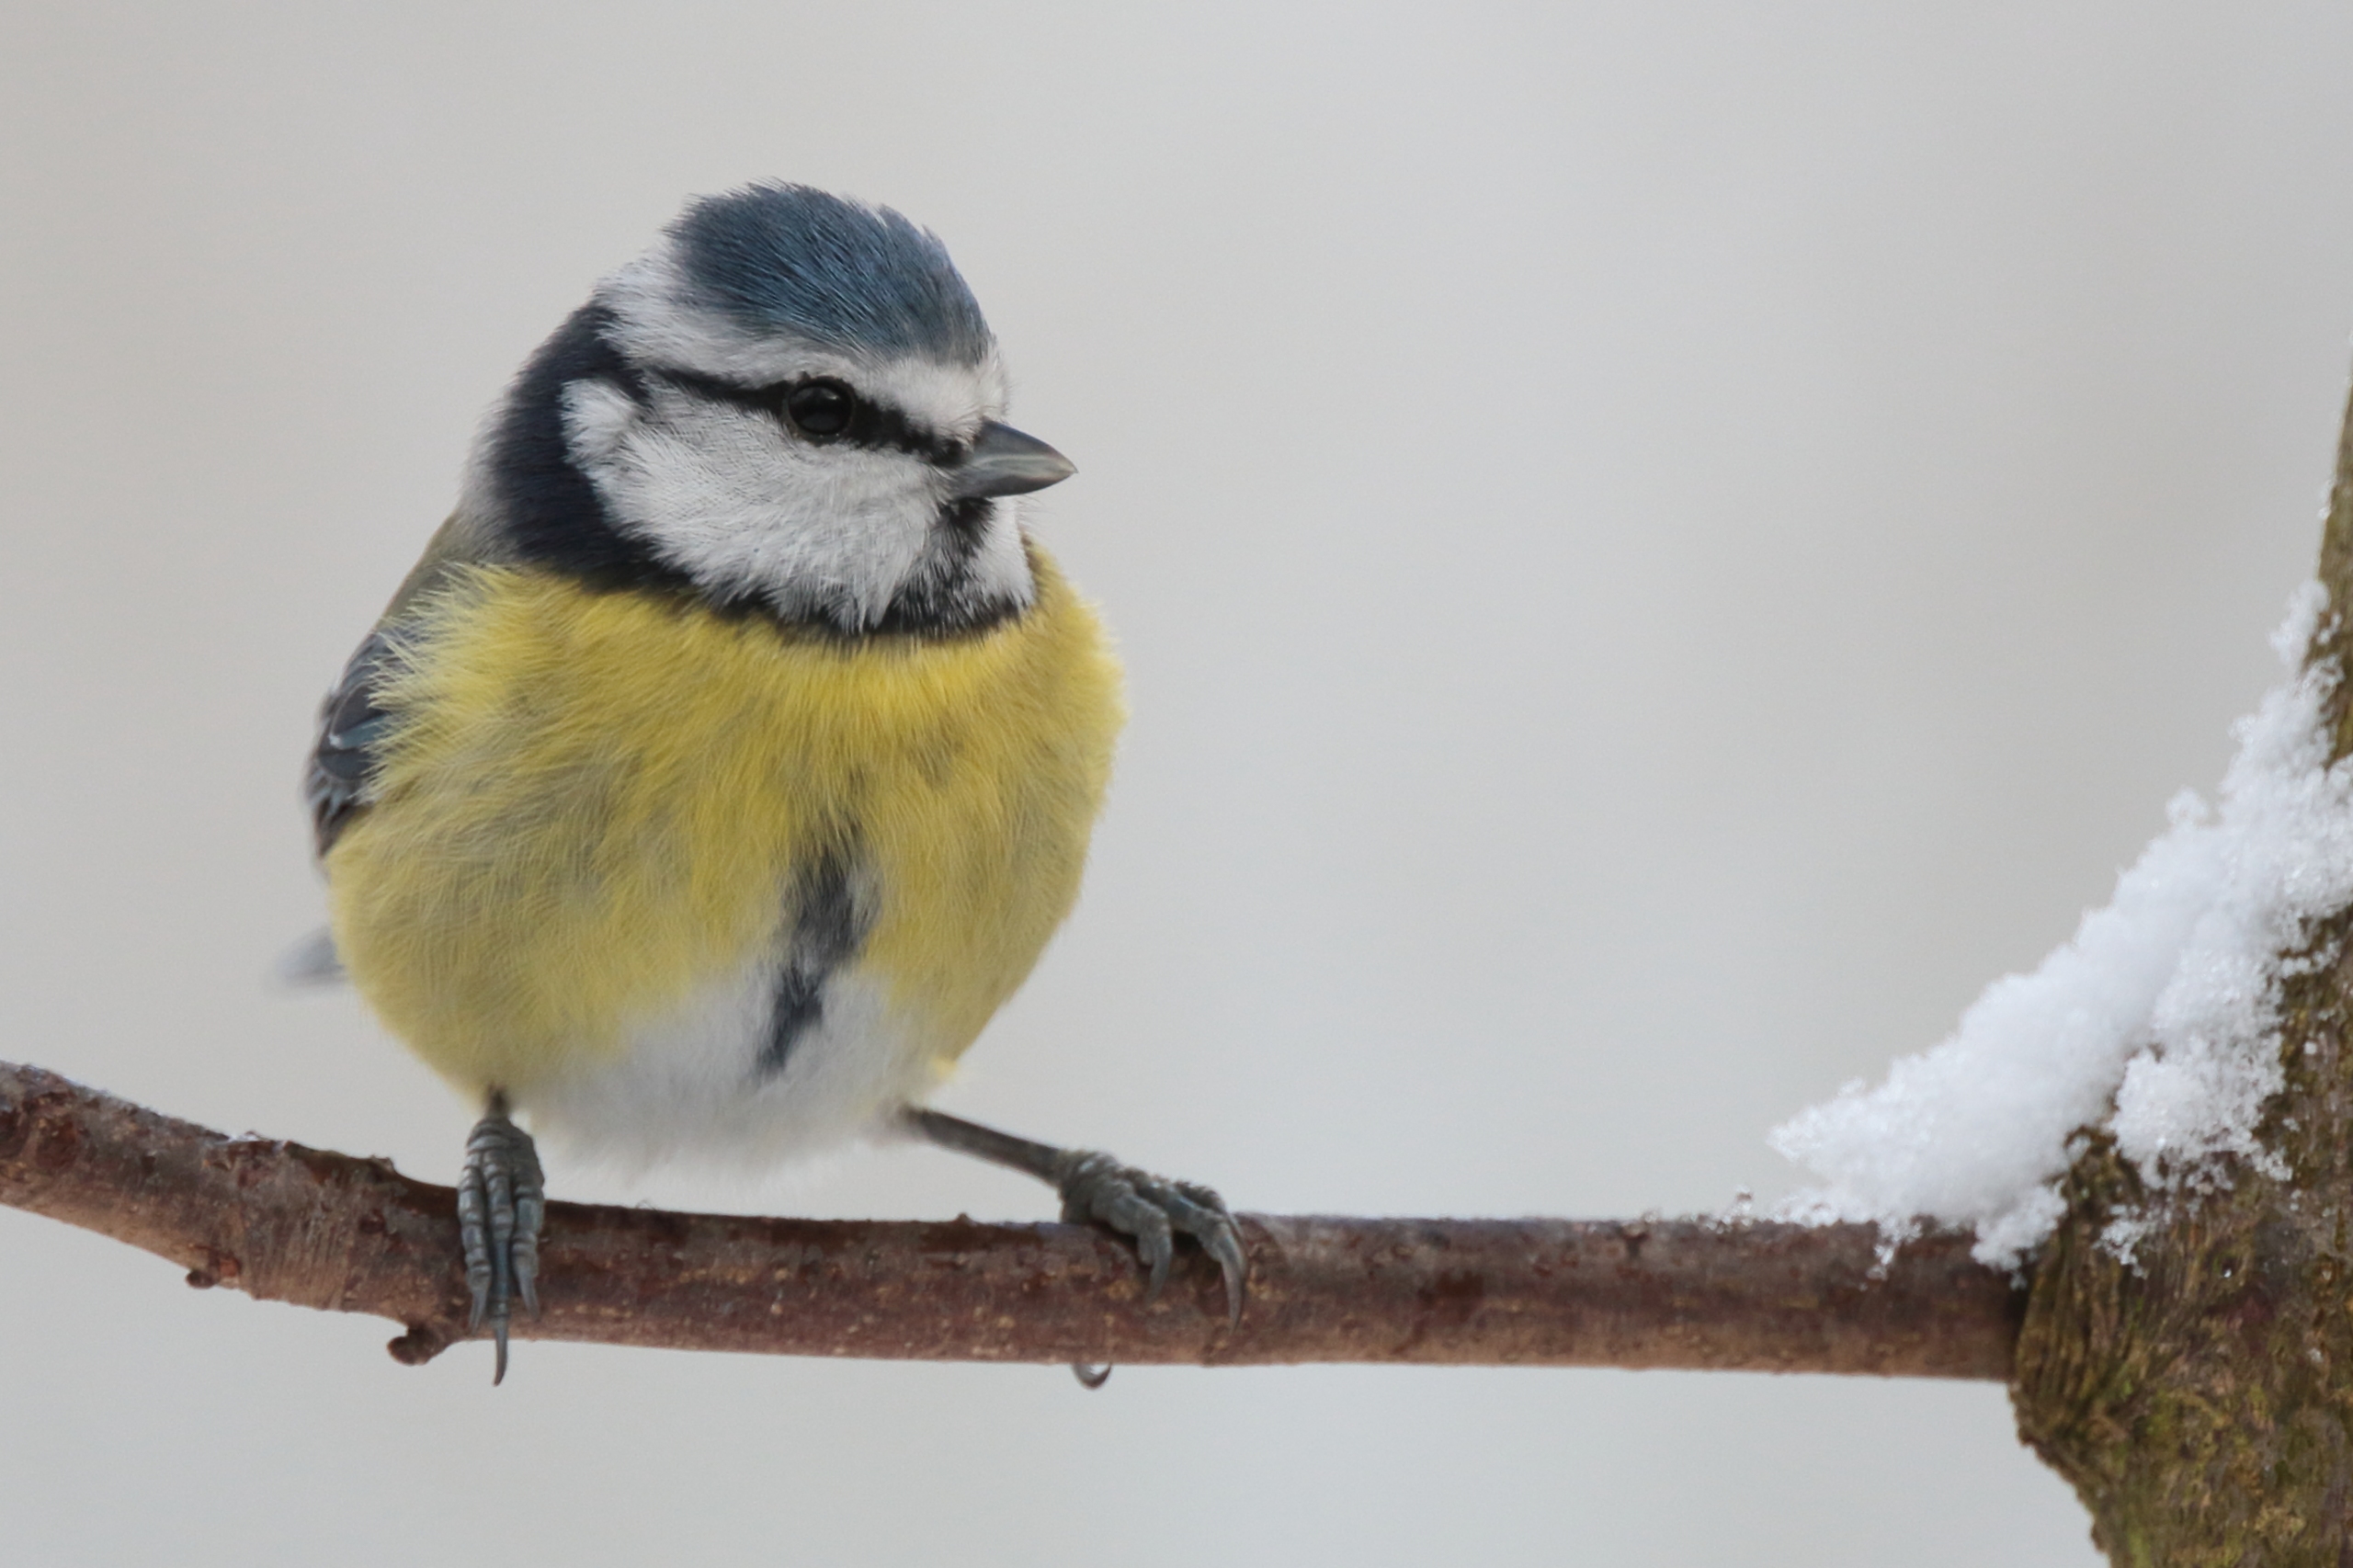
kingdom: Animalia
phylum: Chordata
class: Aves
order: Passeriformes
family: Paridae
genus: Cyanistes
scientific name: Cyanistes caeruleus
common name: Blåmejse
